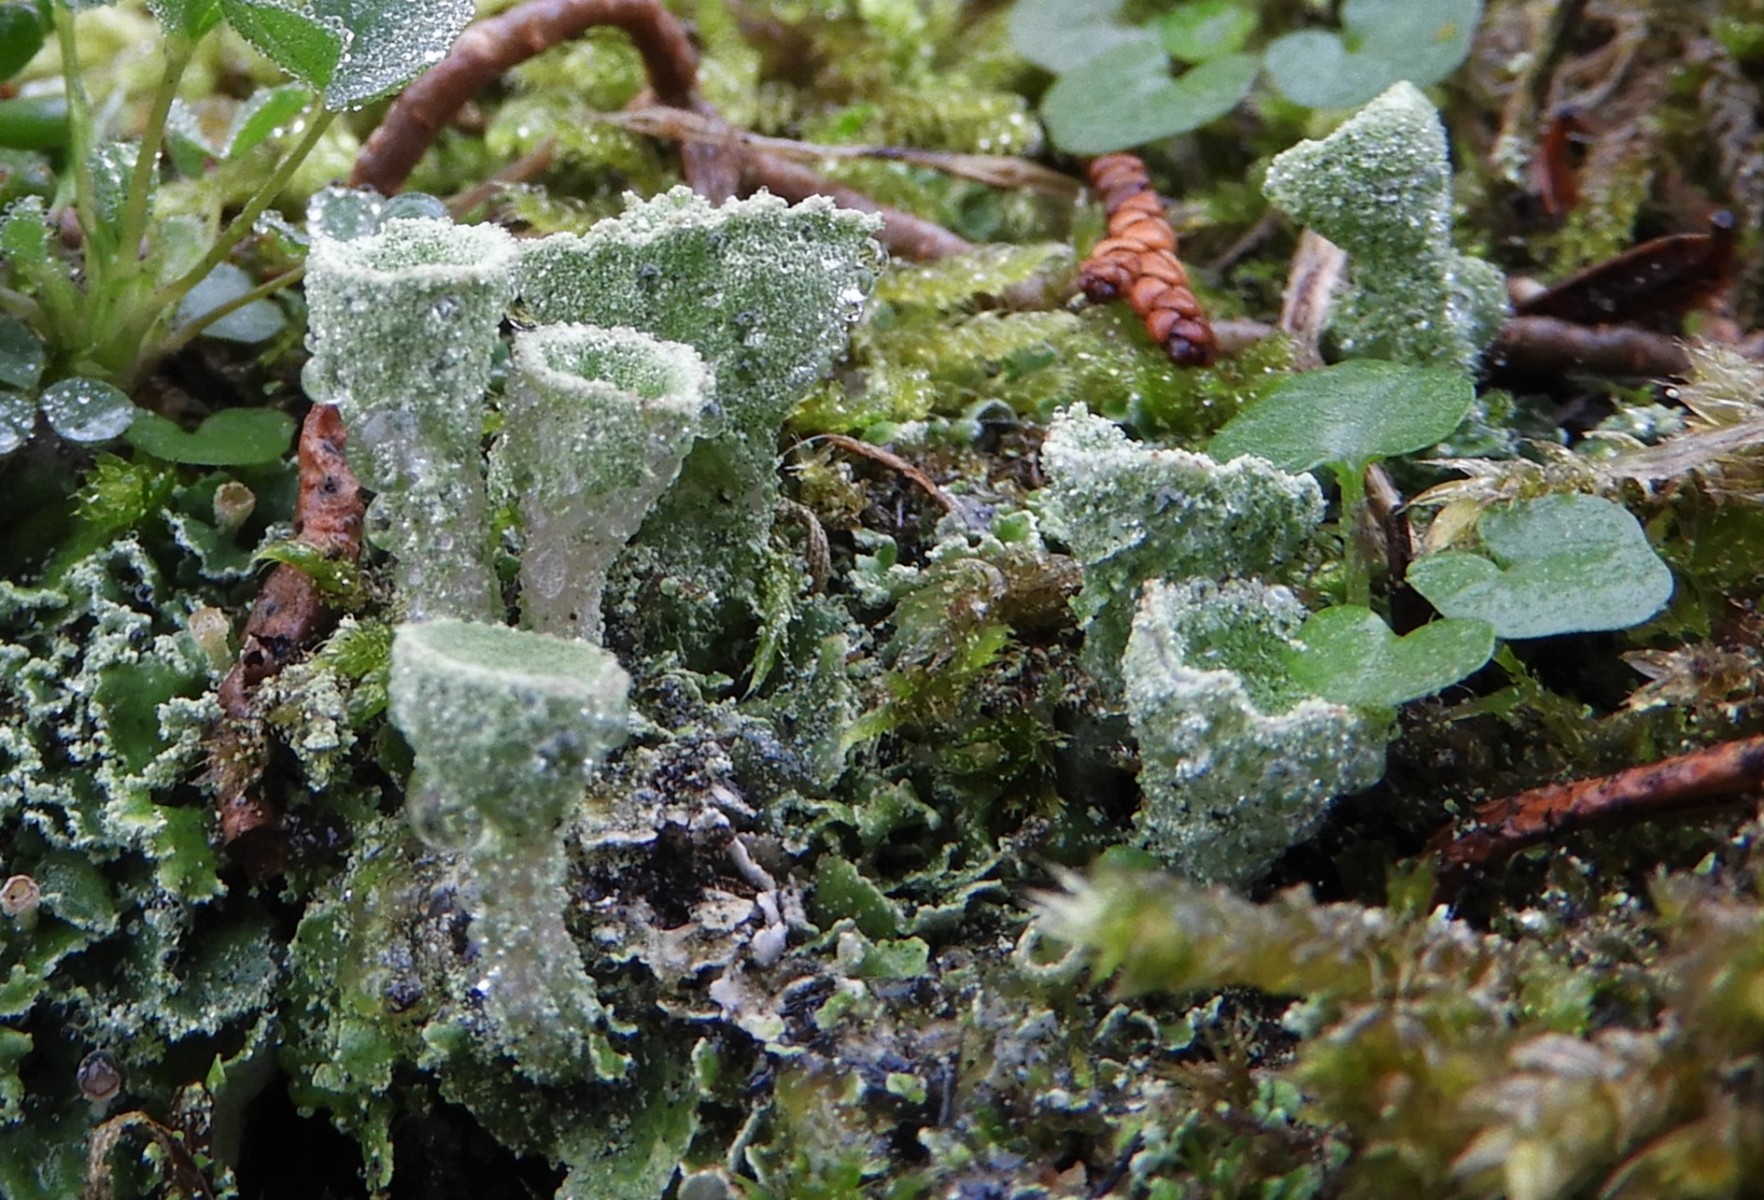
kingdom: Fungi
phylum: Ascomycota
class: Lecanoromycetes
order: Lecanorales
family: Cladoniaceae
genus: Cladonia
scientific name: Cladonia humilis
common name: lav bægerlav
